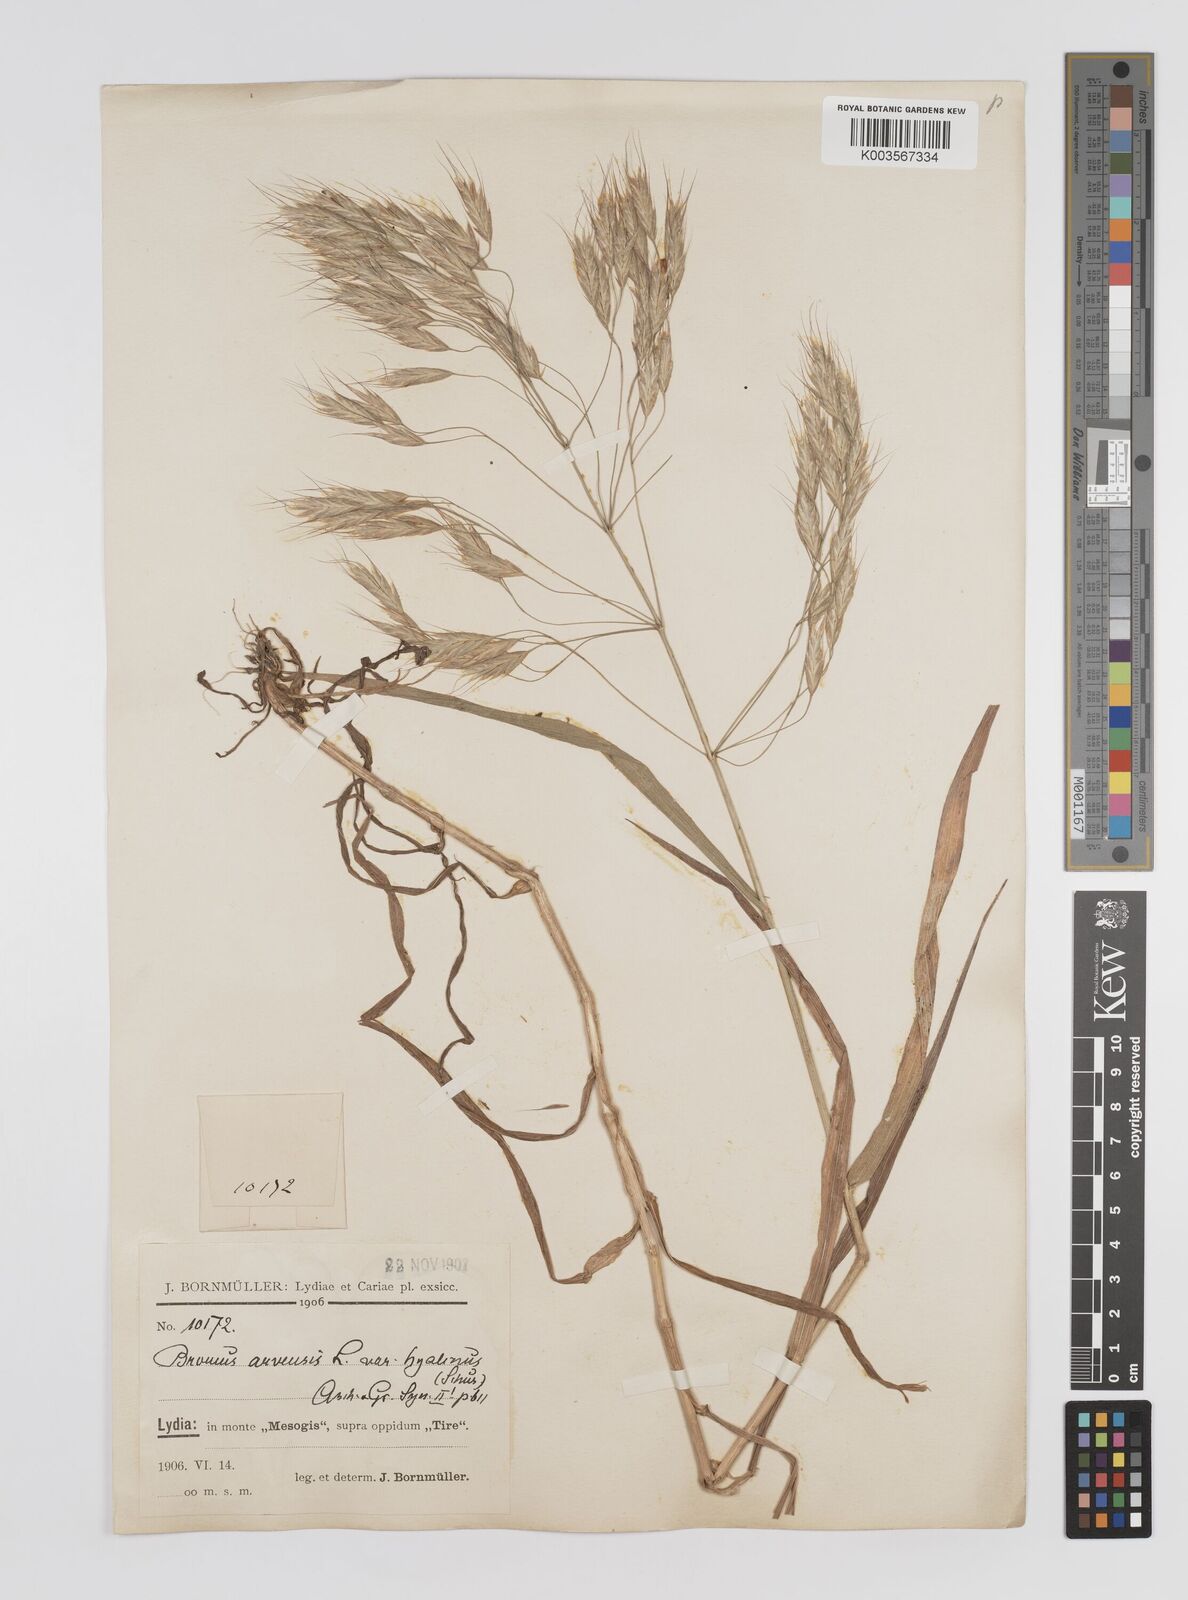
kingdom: Plantae
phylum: Tracheophyta
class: Liliopsida
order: Poales
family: Poaceae
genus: Bromus
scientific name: Bromus erectus
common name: Erect brome
